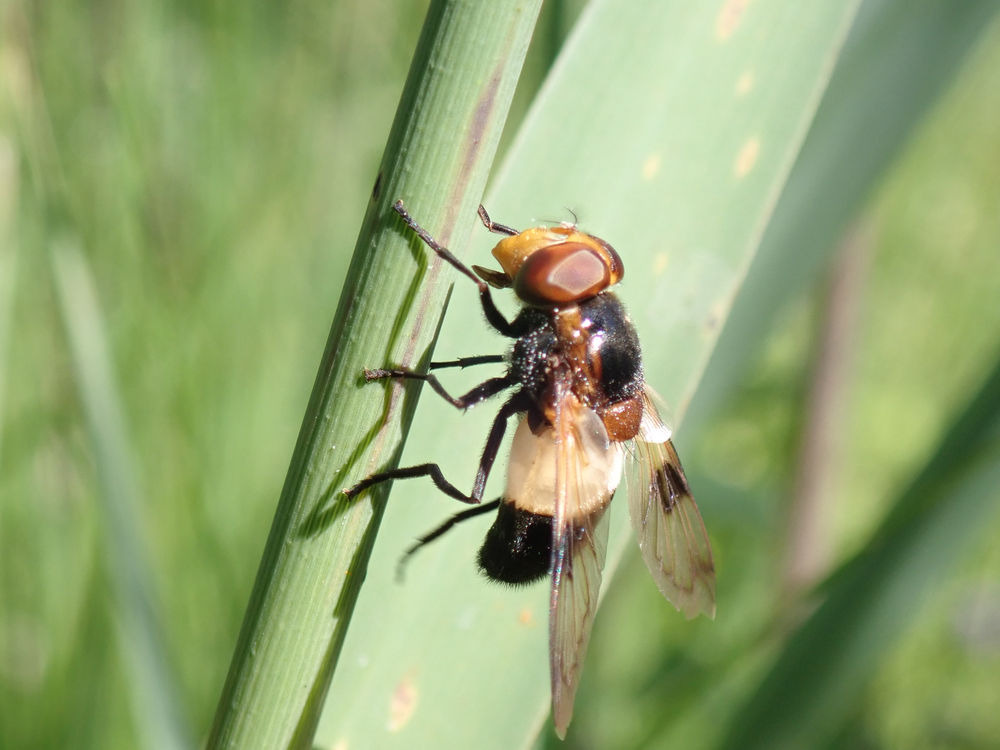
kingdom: Animalia
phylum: Arthropoda
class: Insecta
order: Diptera
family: Syrphidae
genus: Volucella
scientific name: Volucella pellucens
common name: Hvidbåndet humlesvirreflue
